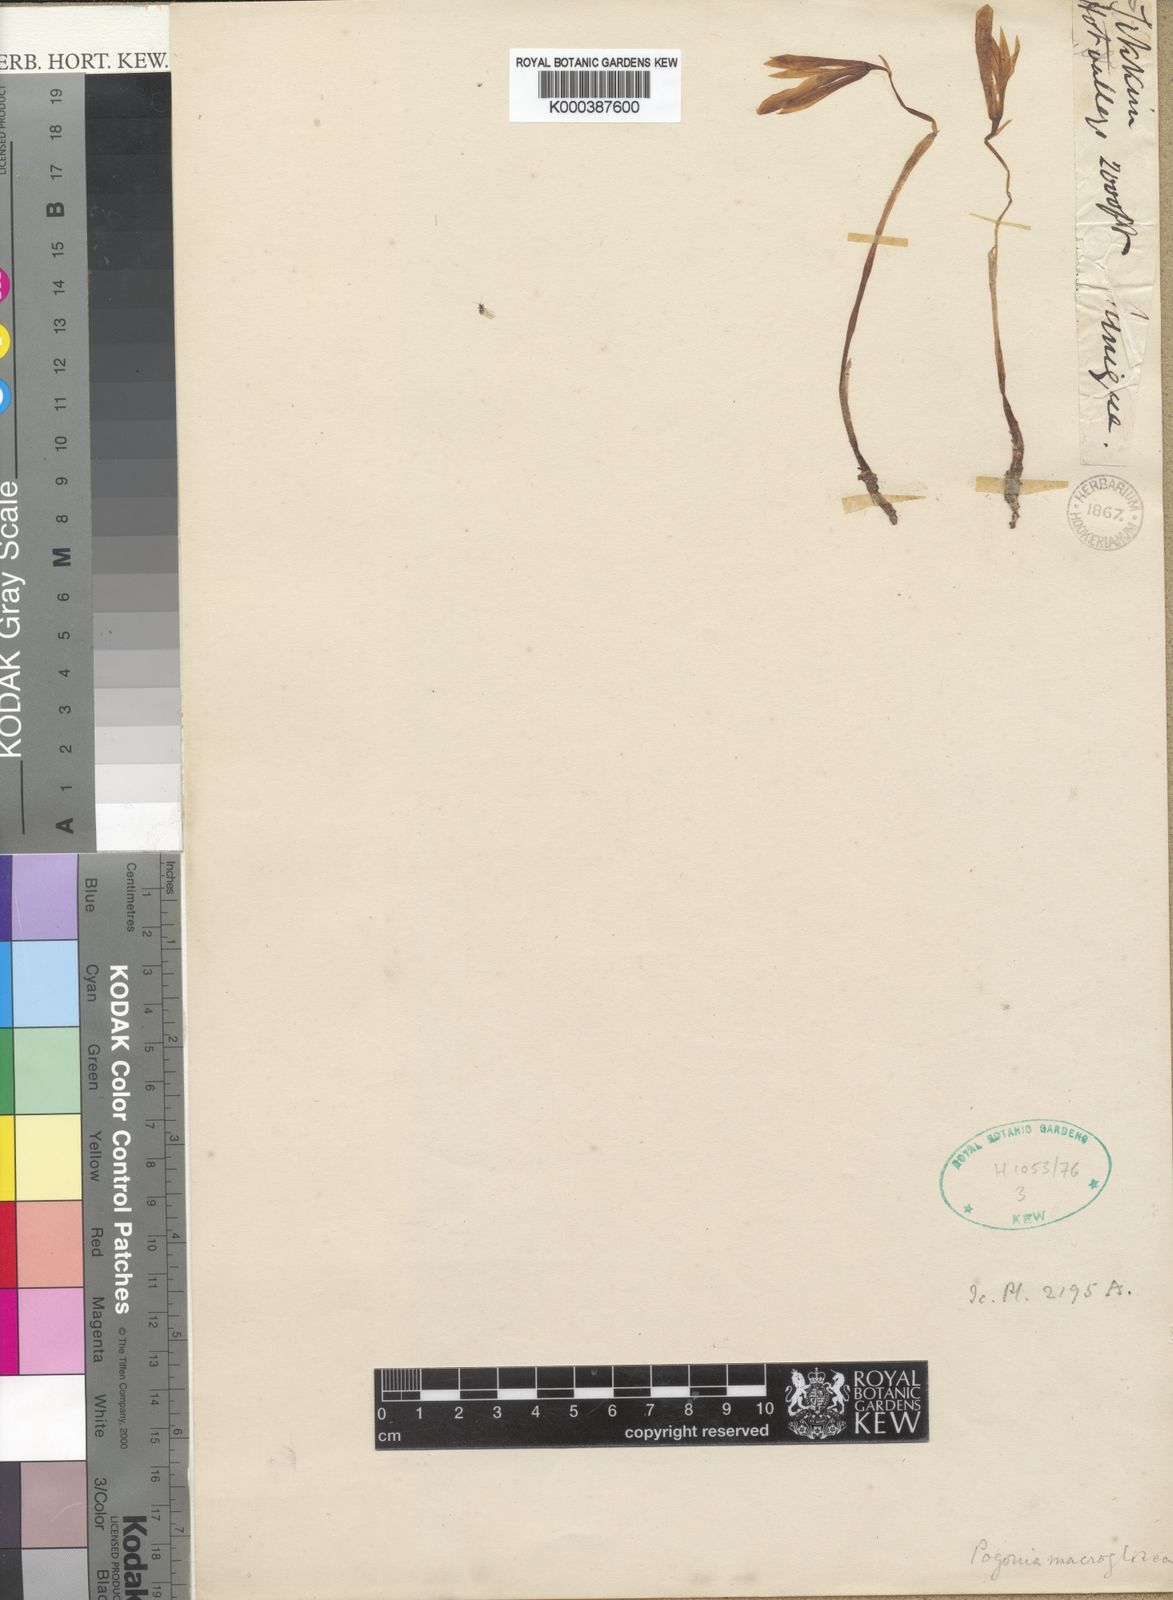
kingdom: Plantae
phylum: Tracheophyta
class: Liliopsida
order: Asparagales
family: Orchidaceae
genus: Nervilia
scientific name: Nervilia macroglossa
